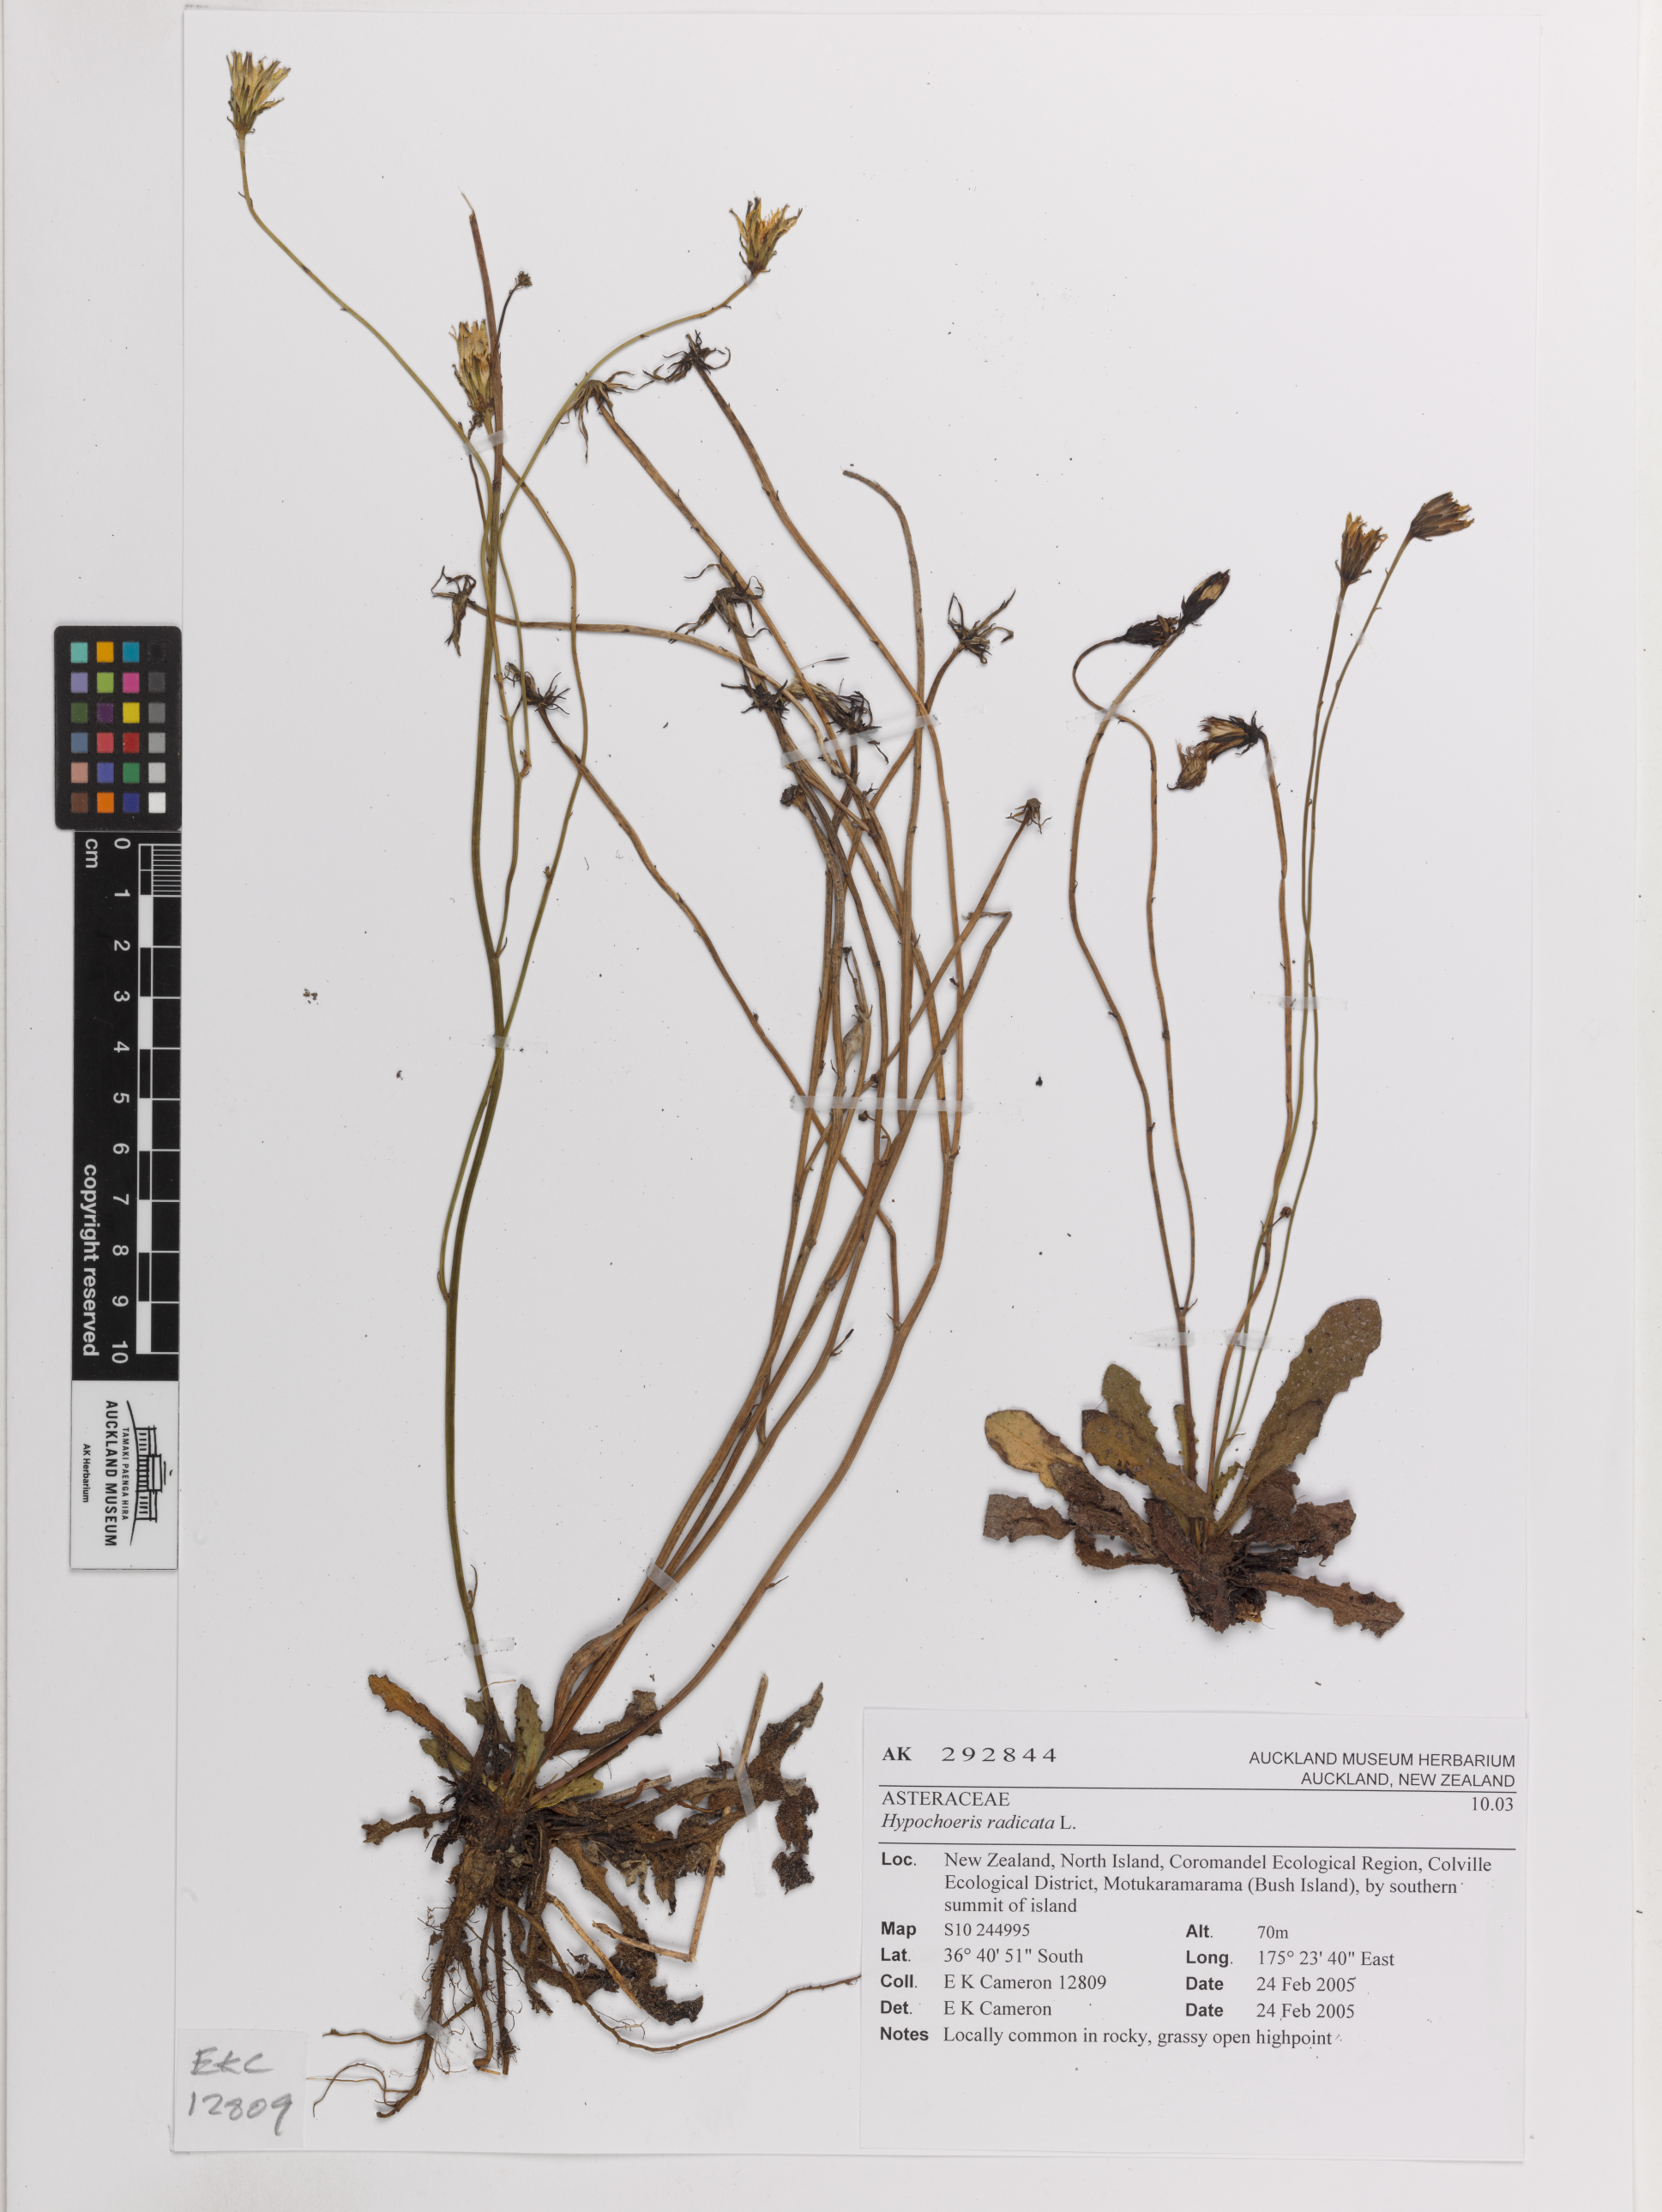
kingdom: Plantae
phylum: Tracheophyta
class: Magnoliopsida
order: Asterales
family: Asteraceae
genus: Hypochaeris
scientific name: Hypochaeris radicata
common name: Flatweed
